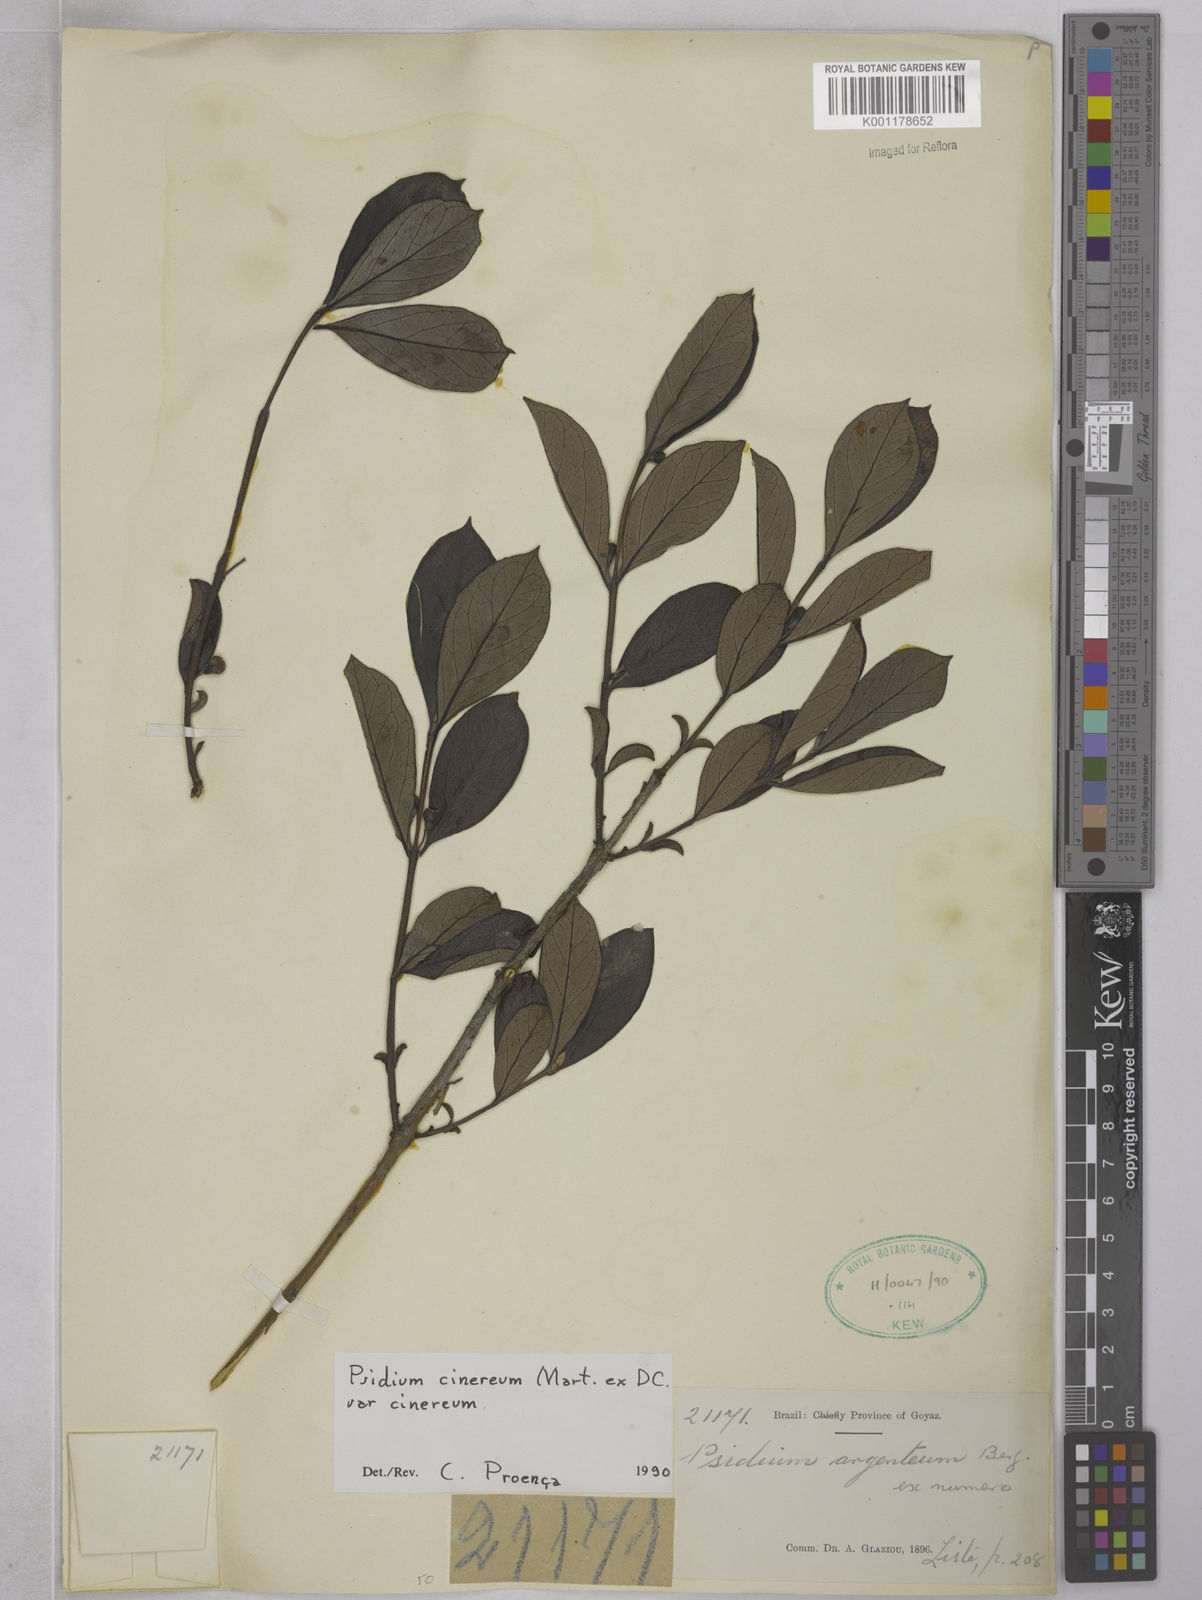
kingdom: Plantae
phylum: Tracheophyta
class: Magnoliopsida
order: Myrtales
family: Myrtaceae
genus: Psidium
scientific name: Psidium grandifolium
